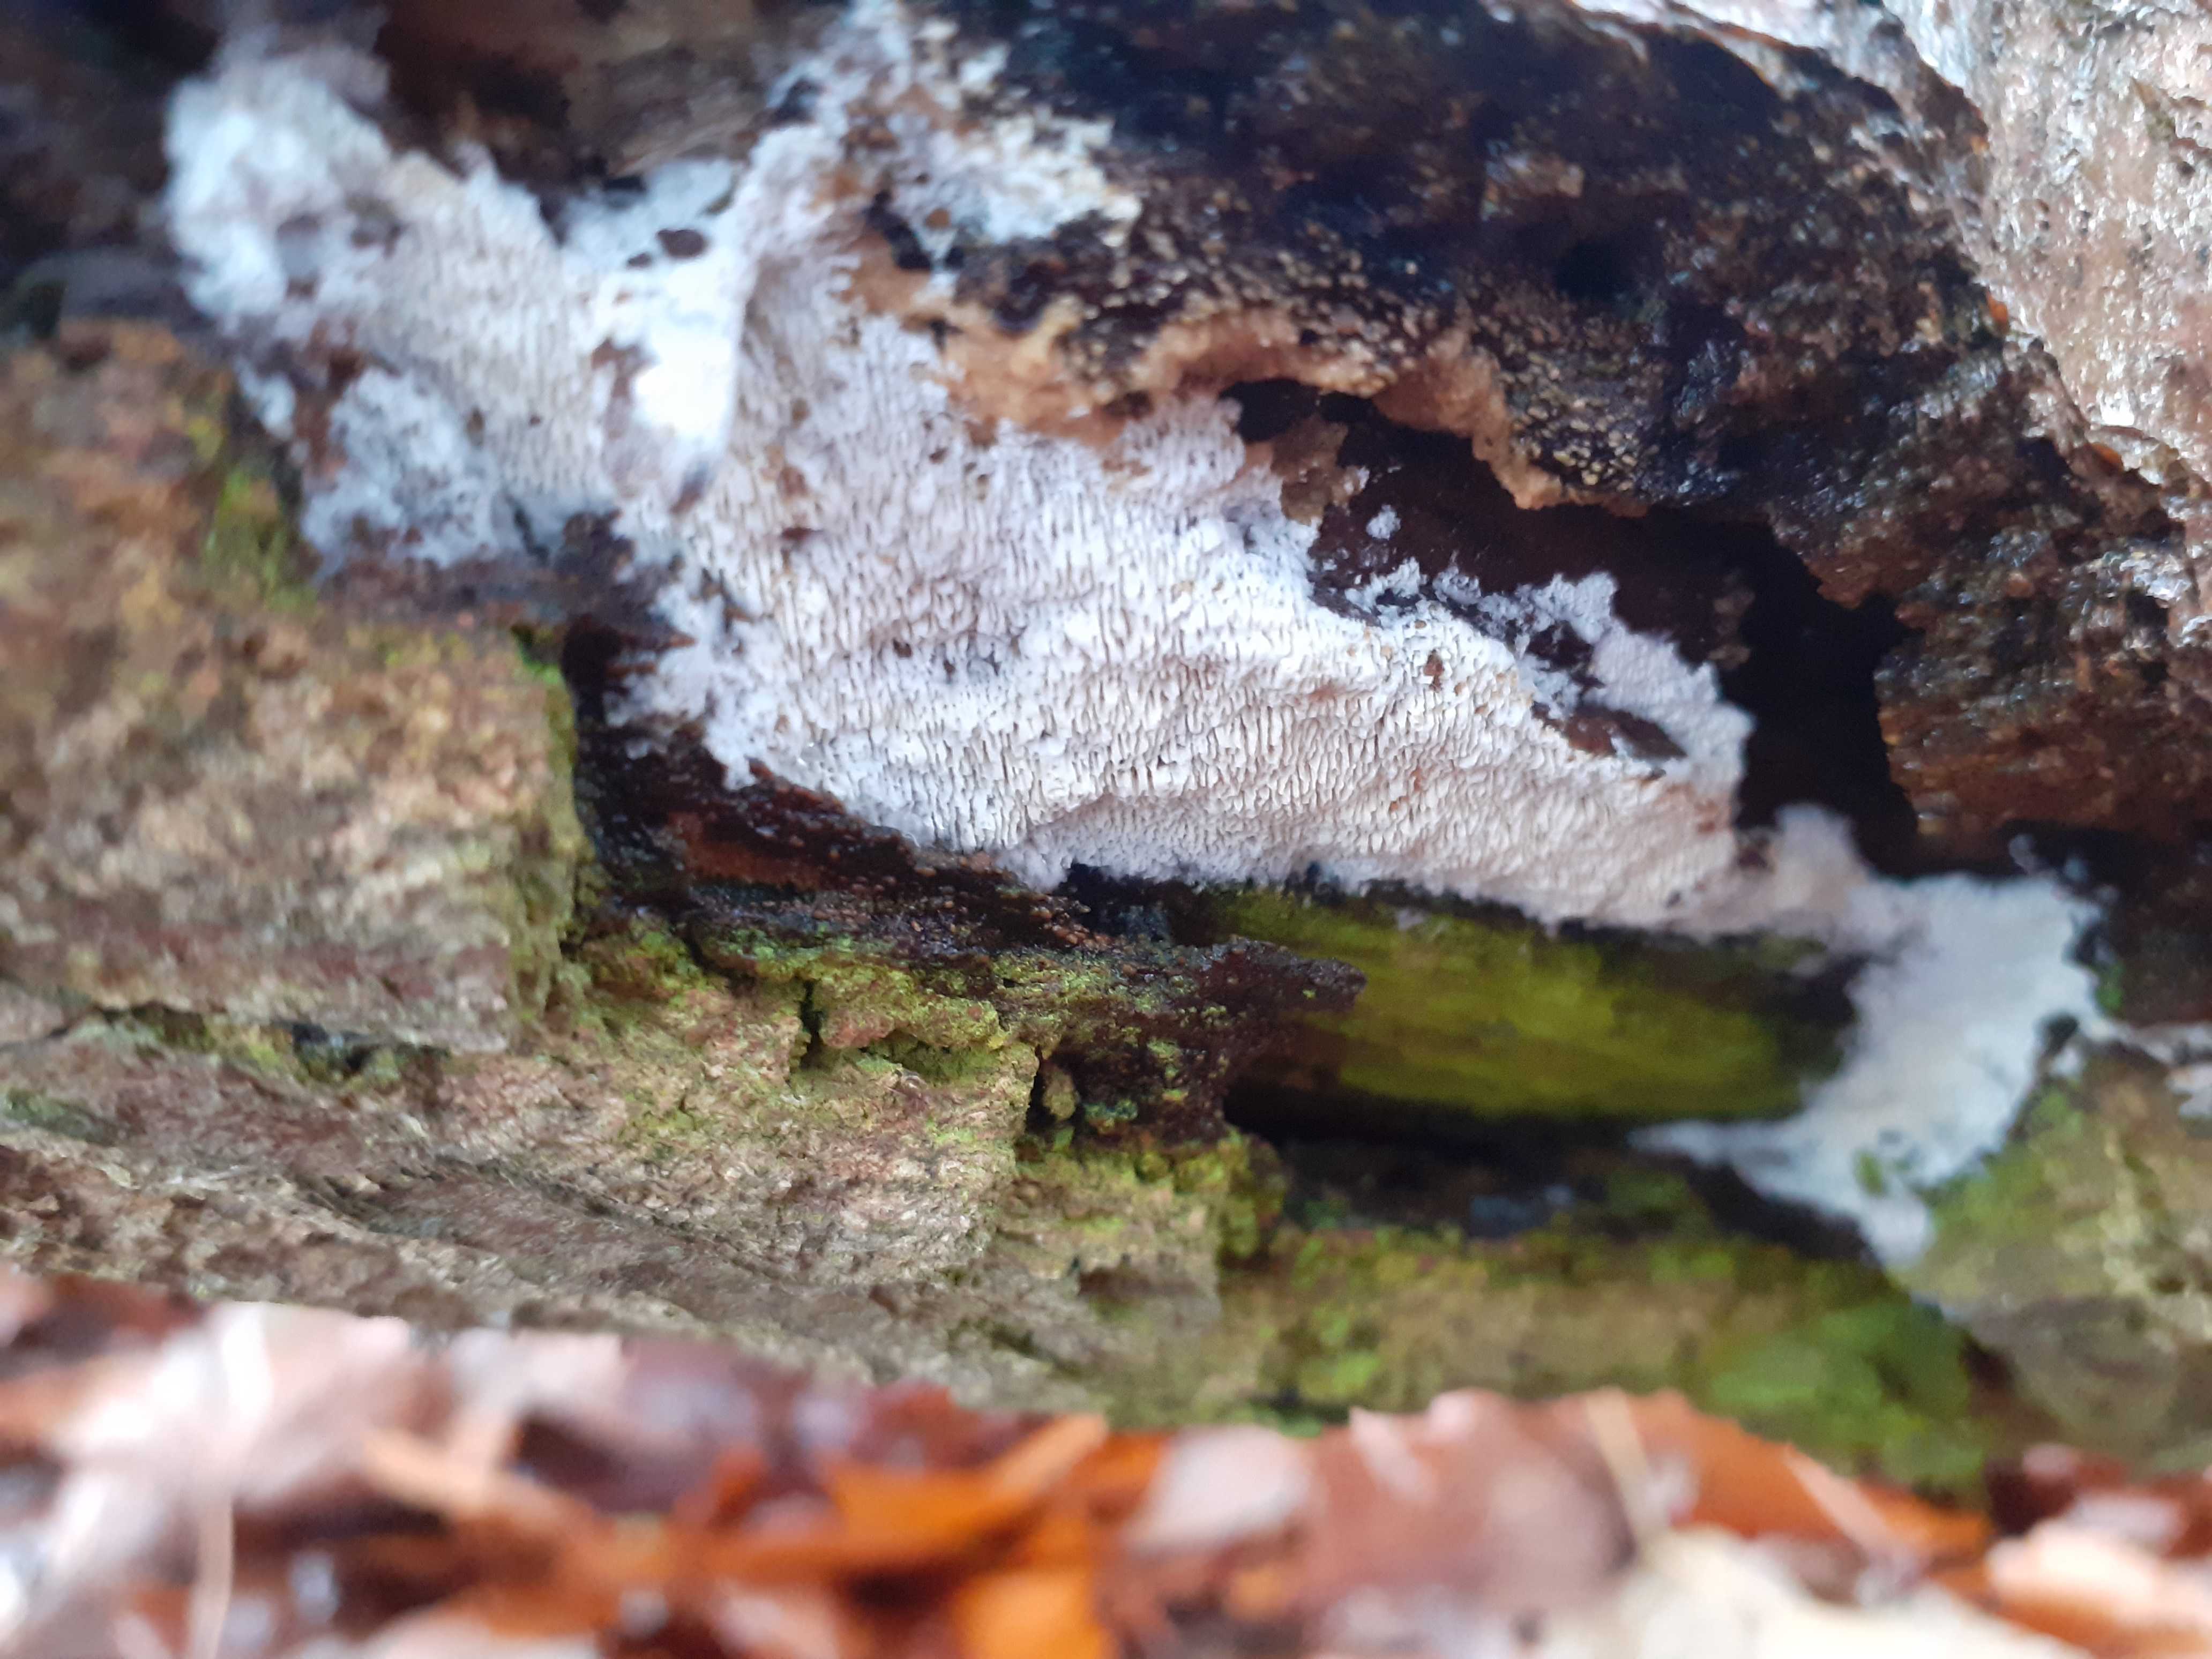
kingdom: Fungi
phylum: Basidiomycota
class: Agaricomycetes
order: Hymenochaetales
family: Schizoporaceae
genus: Schizopora
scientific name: Schizopora paradoxa
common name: hvid tandsvamp
